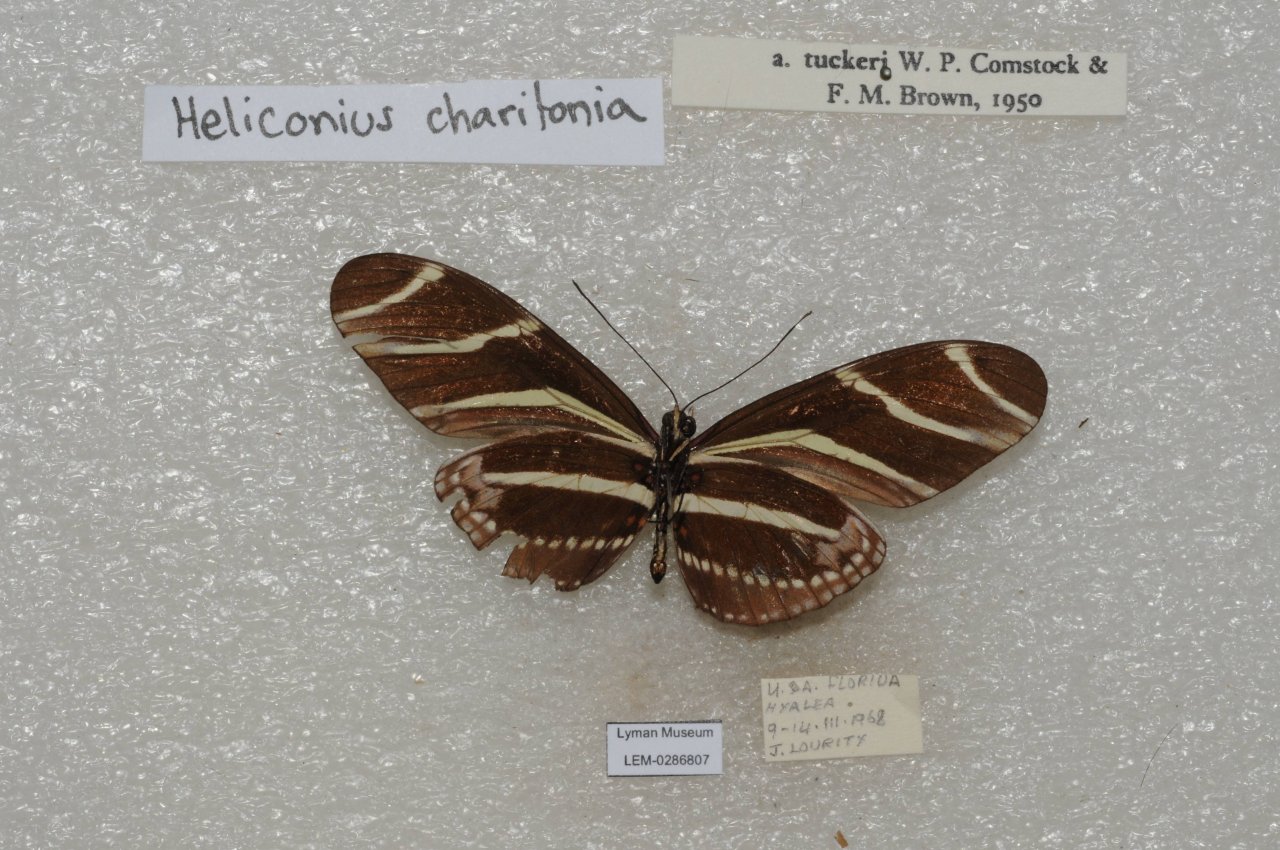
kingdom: Animalia
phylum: Arthropoda
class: Insecta
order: Lepidoptera
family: Nymphalidae
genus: Heliconius
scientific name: Heliconius charithonia
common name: Zebra Longwing
